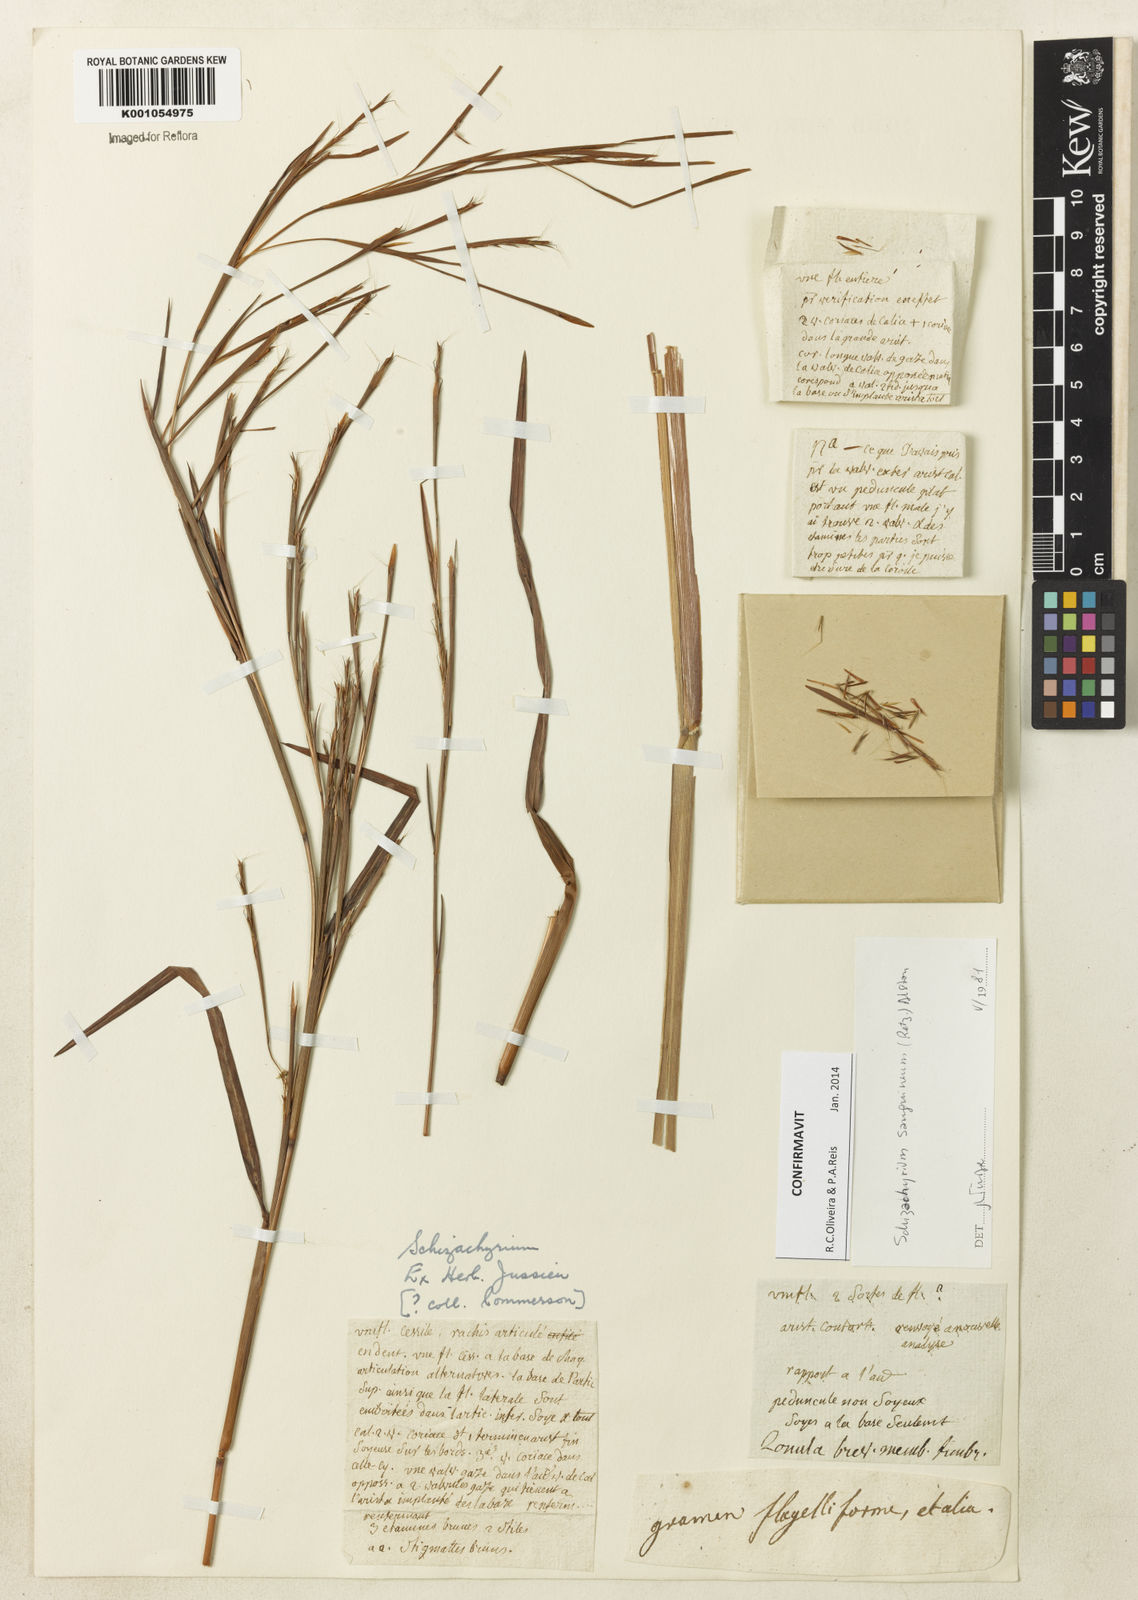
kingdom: Plantae
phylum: Tracheophyta
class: Liliopsida
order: Poales
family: Poaceae
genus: Schizachyrium
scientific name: Schizachyrium sanguineum
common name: Crimson bluestem
